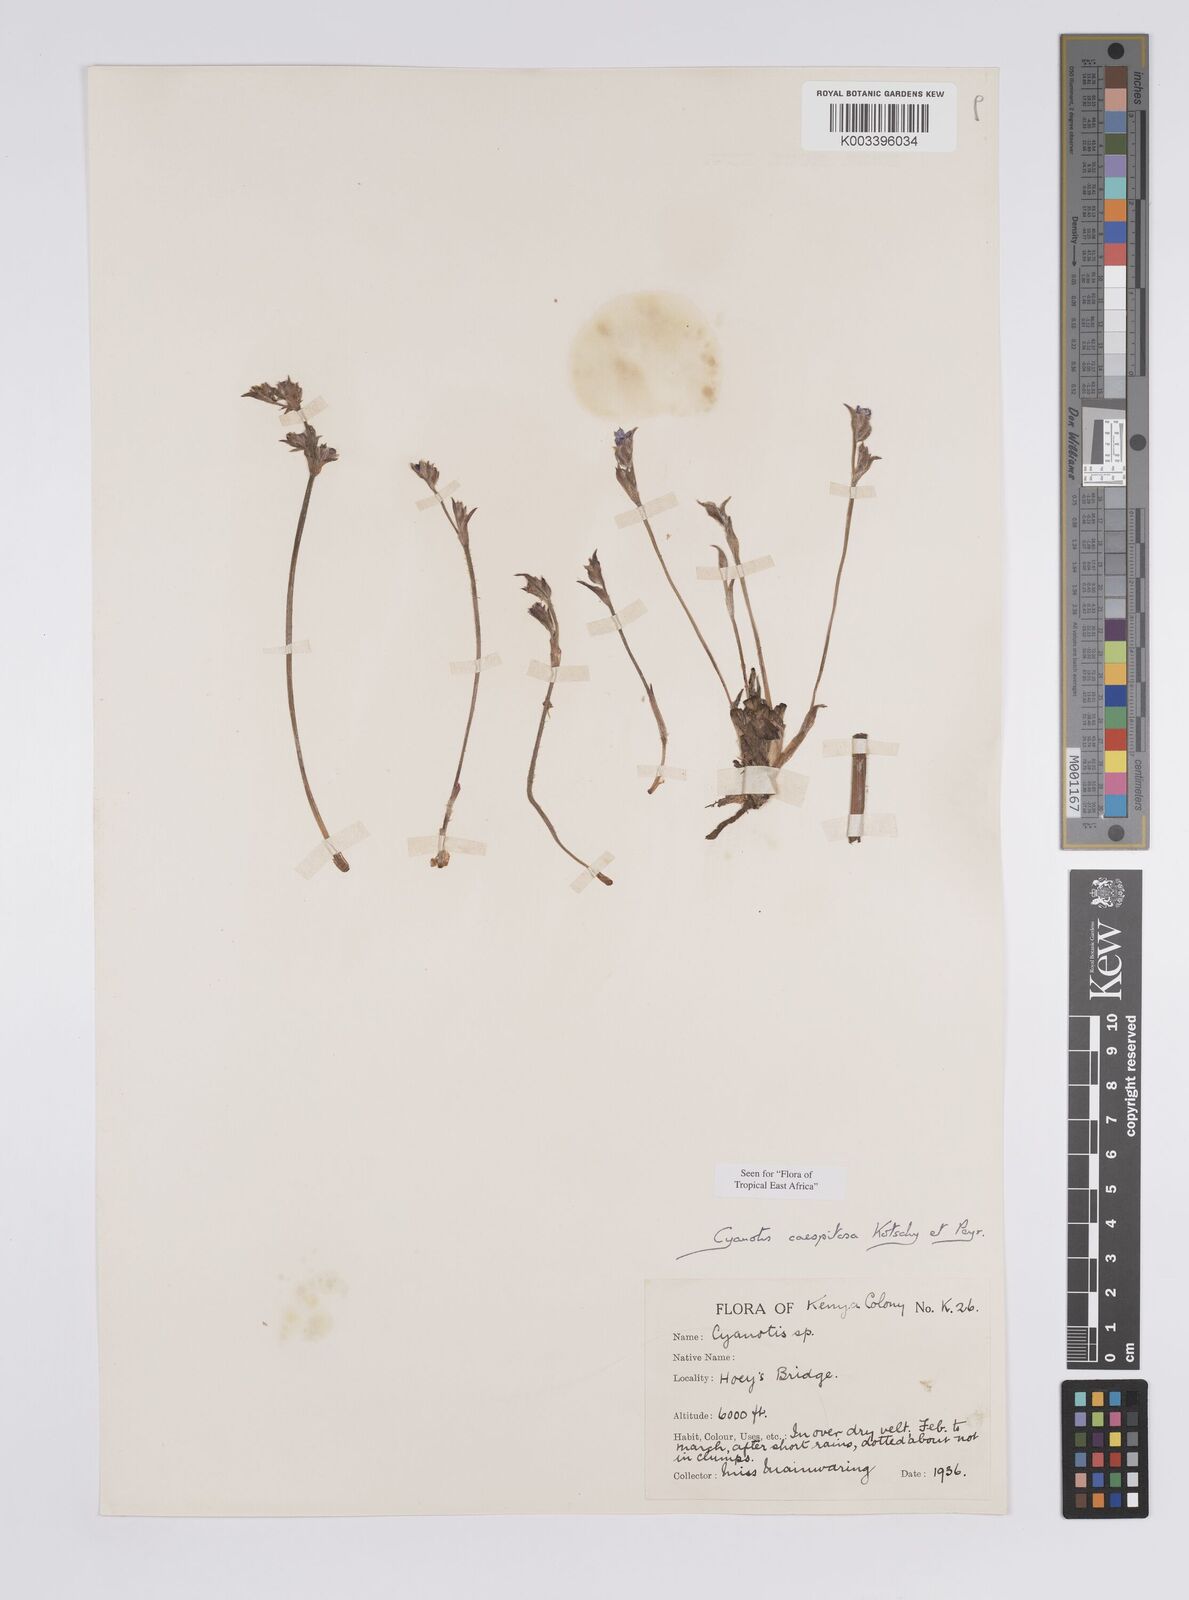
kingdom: Plantae
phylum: Tracheophyta
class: Liliopsida
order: Commelinales
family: Commelinaceae
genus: Cyanotis
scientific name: Cyanotis caespitosa
